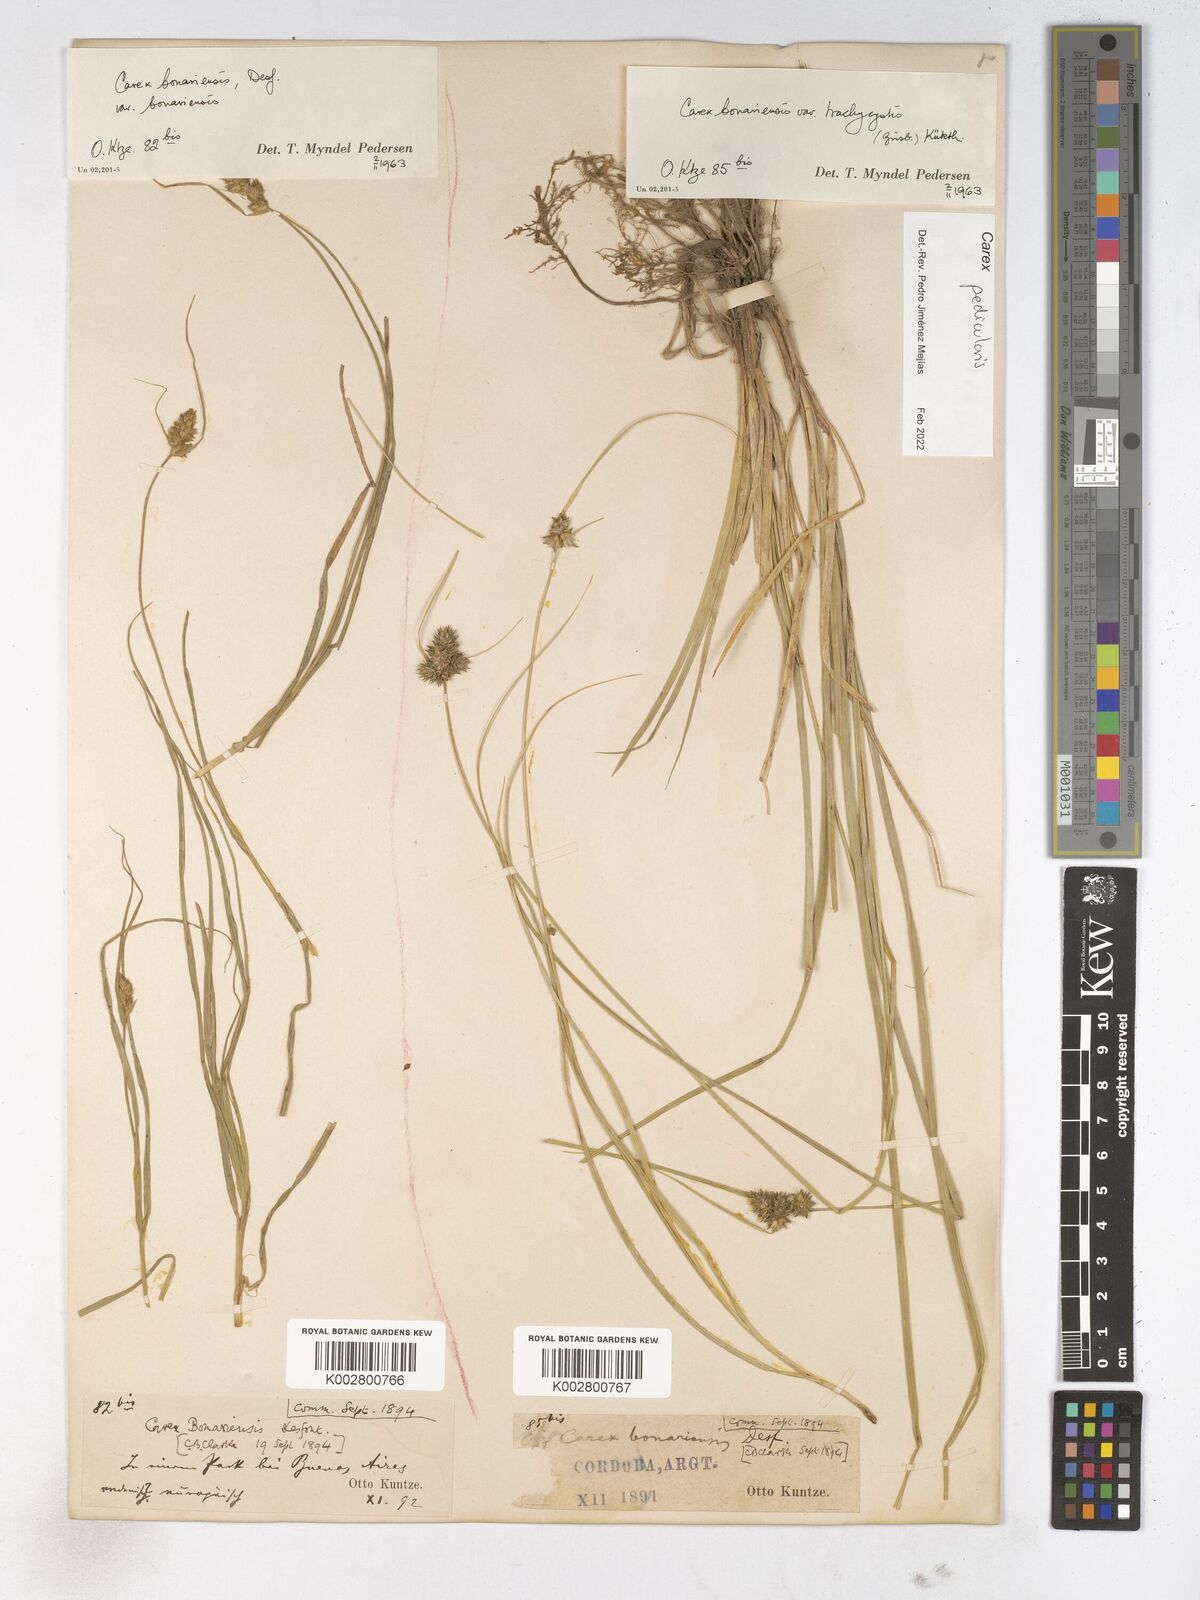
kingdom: Plantae
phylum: Tracheophyta
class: Liliopsida
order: Poales
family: Cyperaceae
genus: Carex
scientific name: Carex bonariensis
